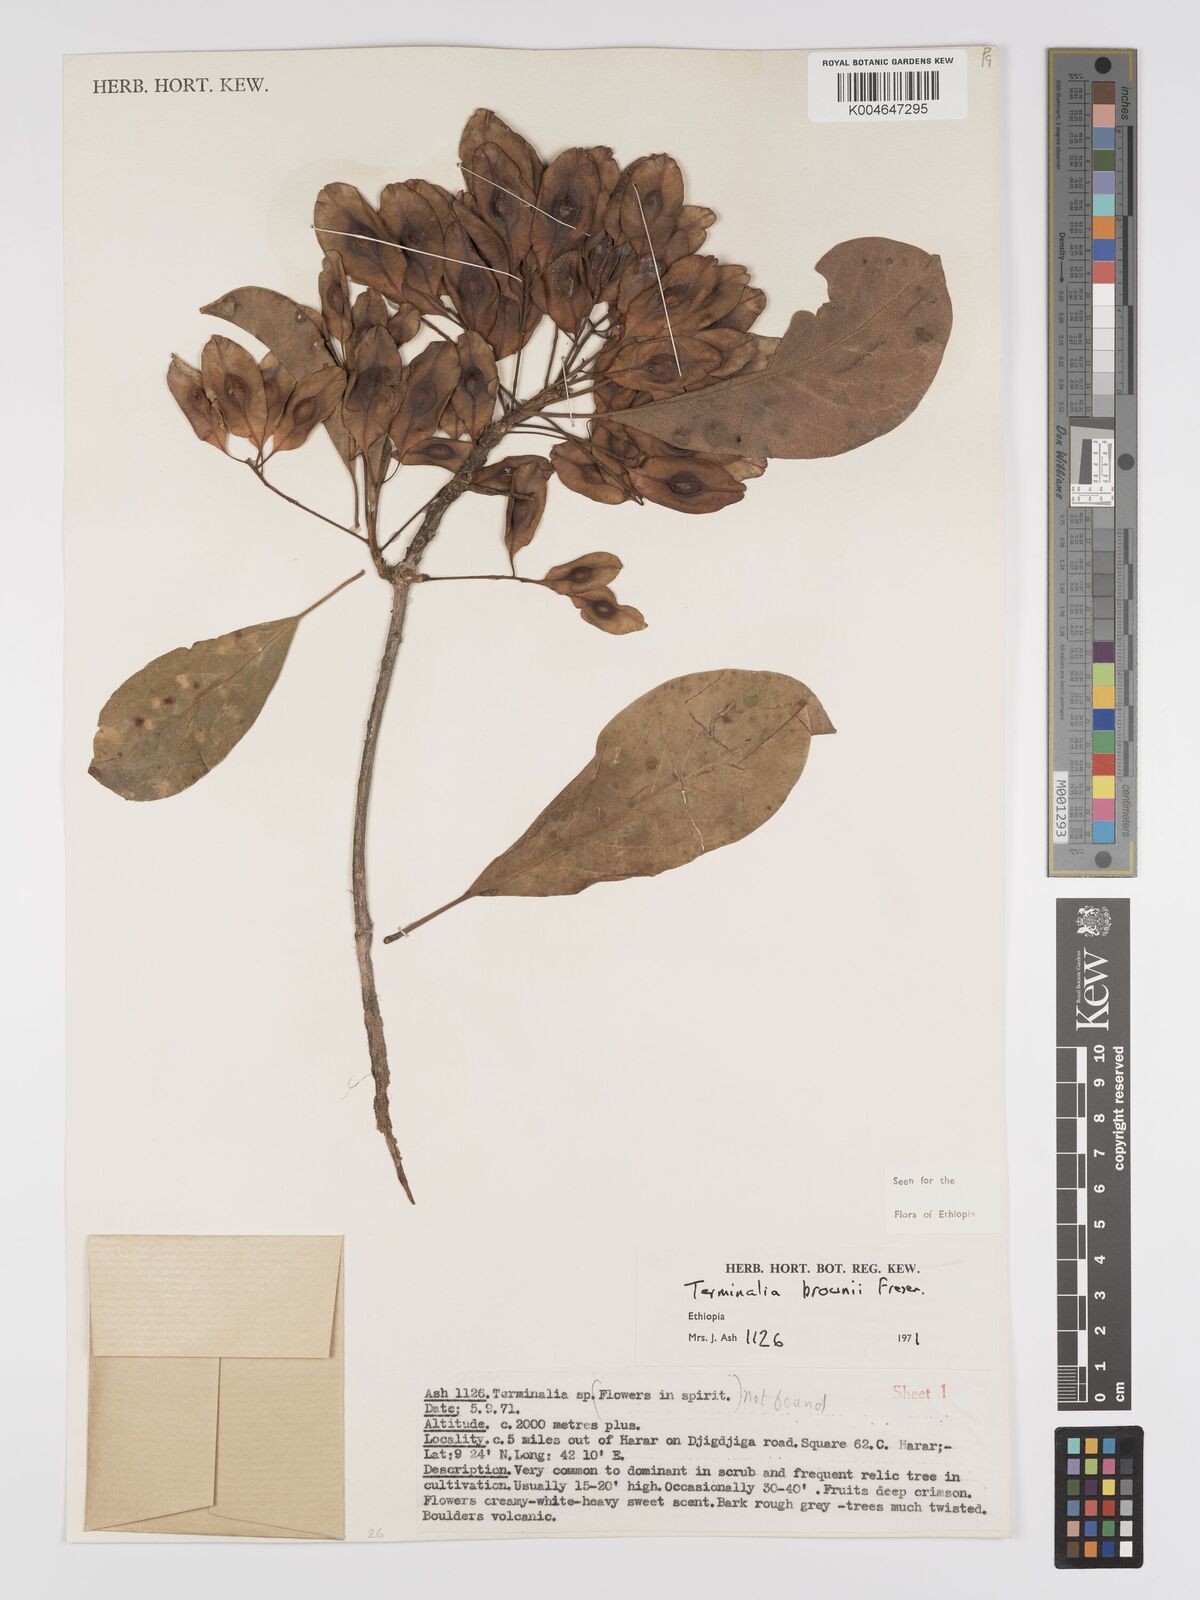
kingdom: Plantae
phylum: Tracheophyta
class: Magnoliopsida
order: Myrtales
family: Combretaceae
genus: Terminalia
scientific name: Terminalia brownii
